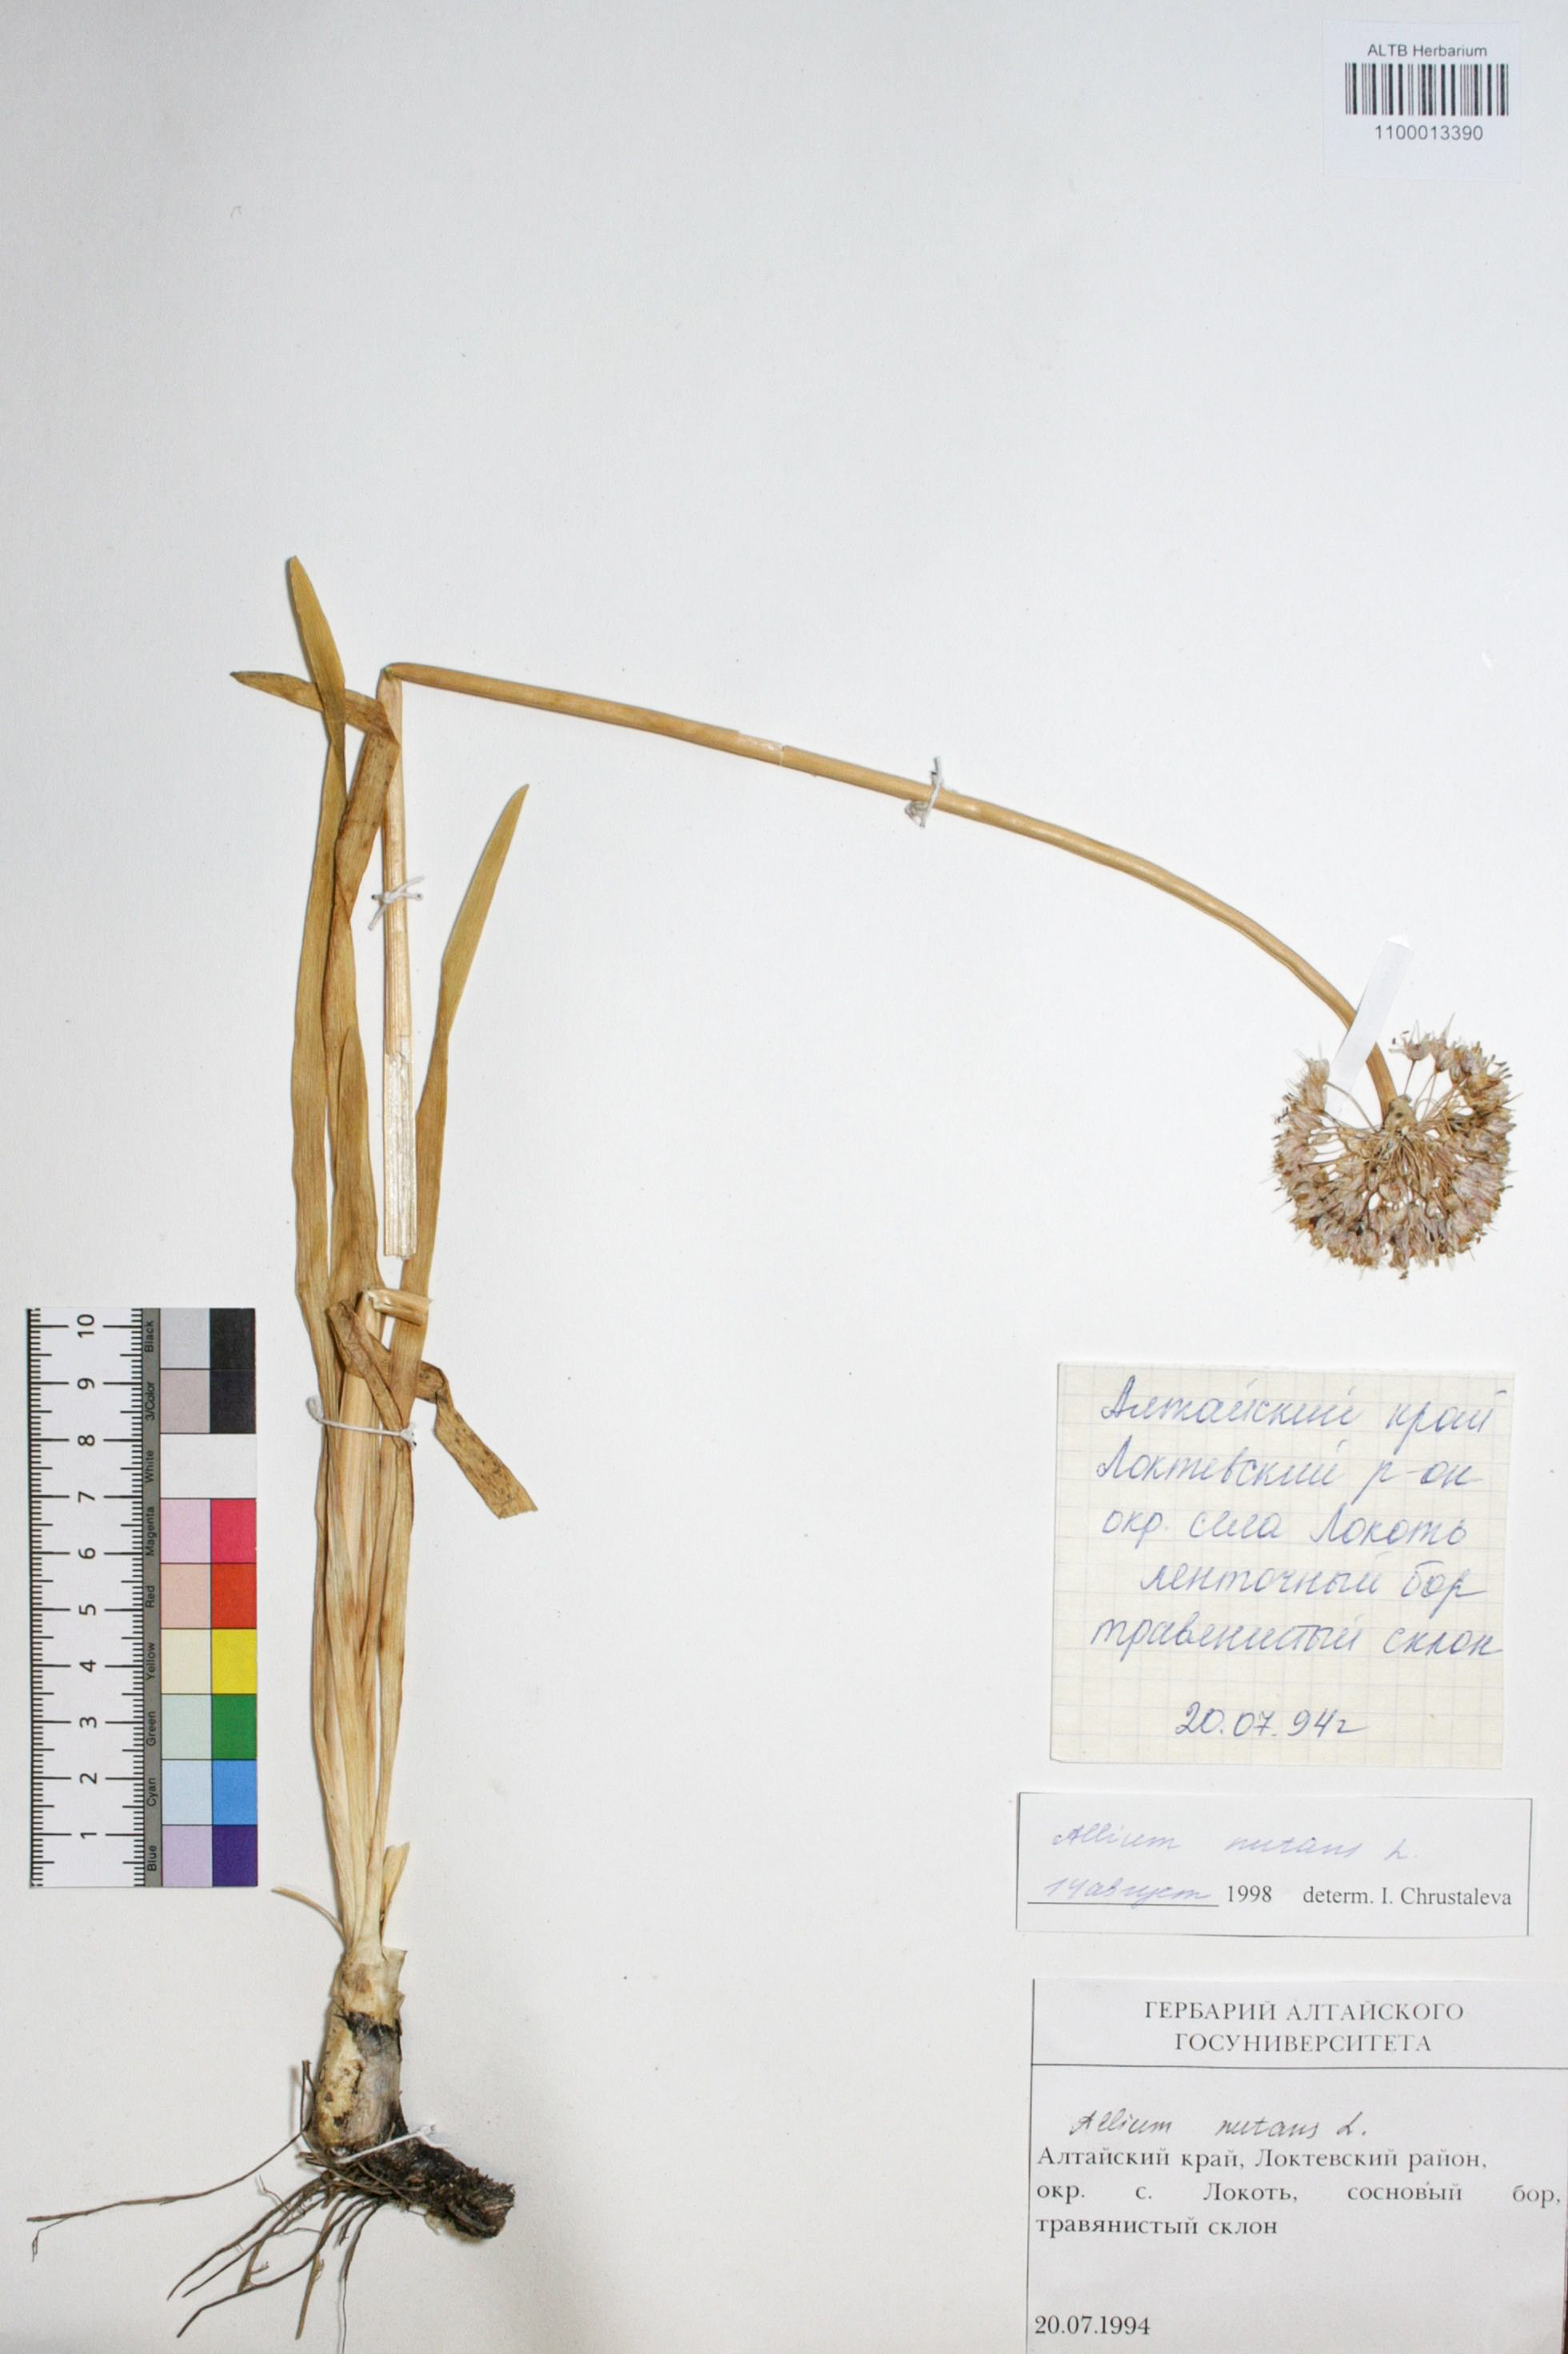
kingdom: Plantae
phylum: Tracheophyta
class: Liliopsida
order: Asparagales
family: Amaryllidaceae
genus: Allium
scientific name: Allium nutans
